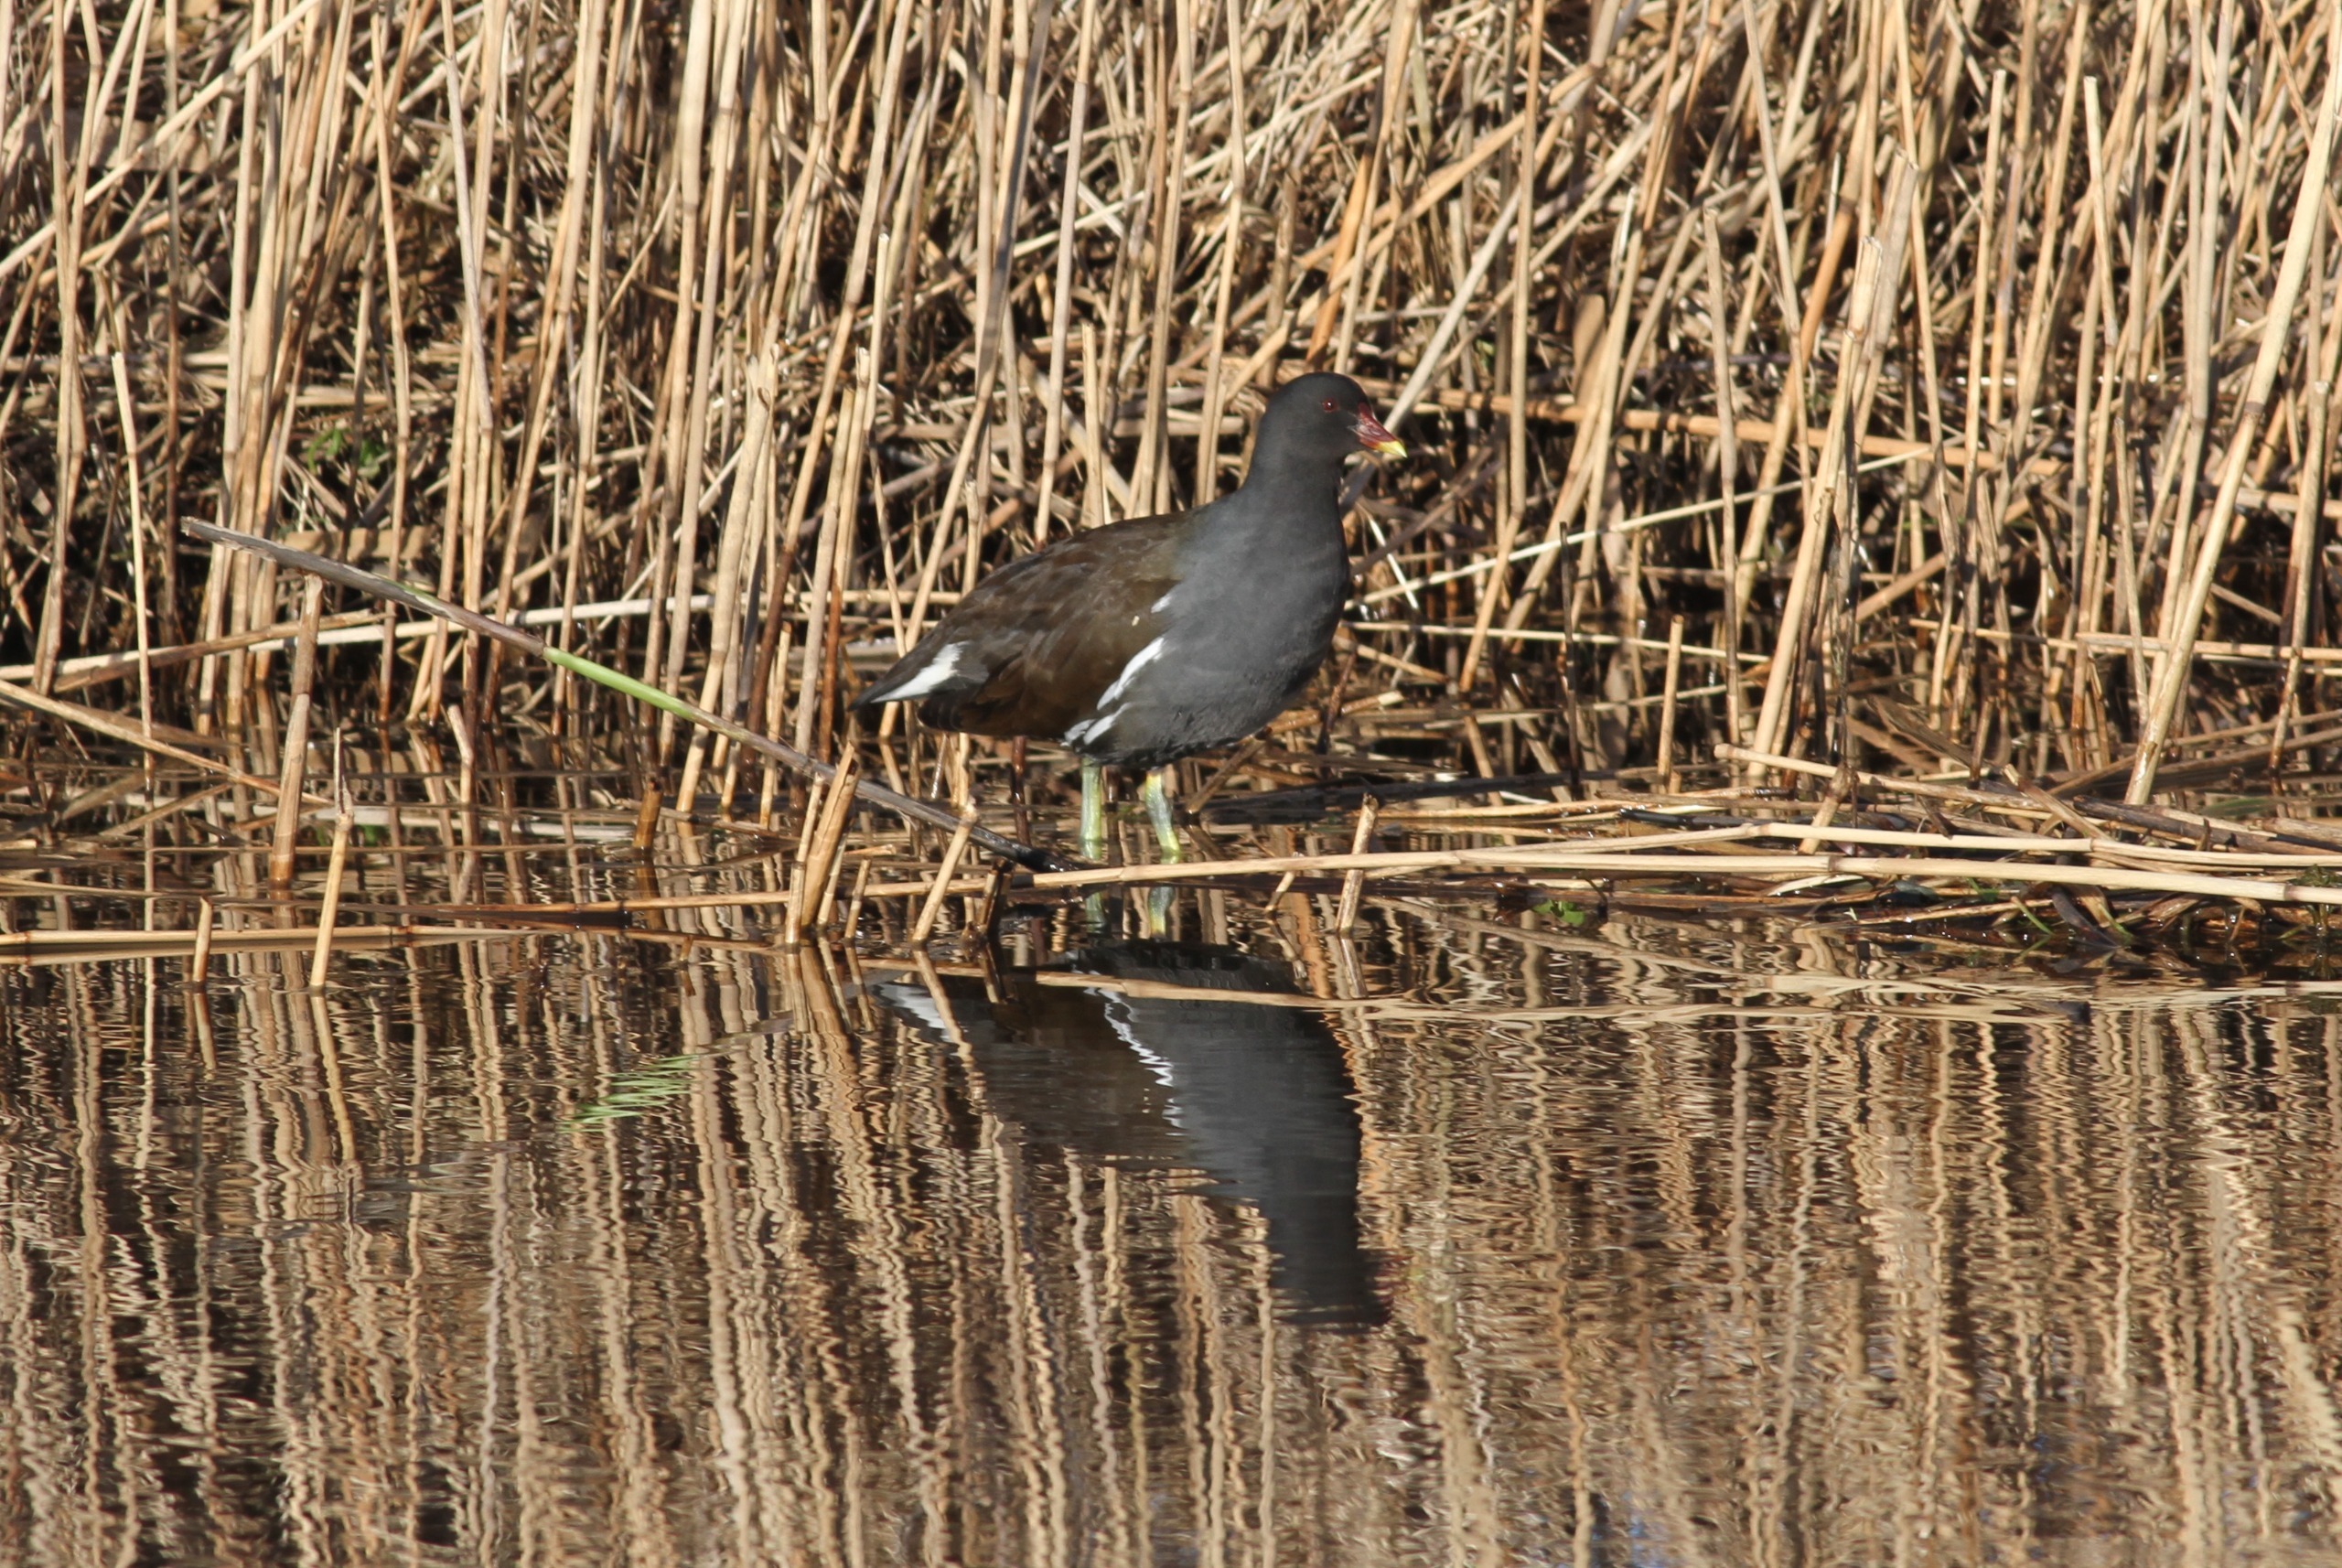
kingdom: Animalia
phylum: Chordata
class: Aves
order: Gruiformes
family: Rallidae
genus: Gallinula
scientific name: Gallinula chloropus
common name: Grønbenet rørhøne
